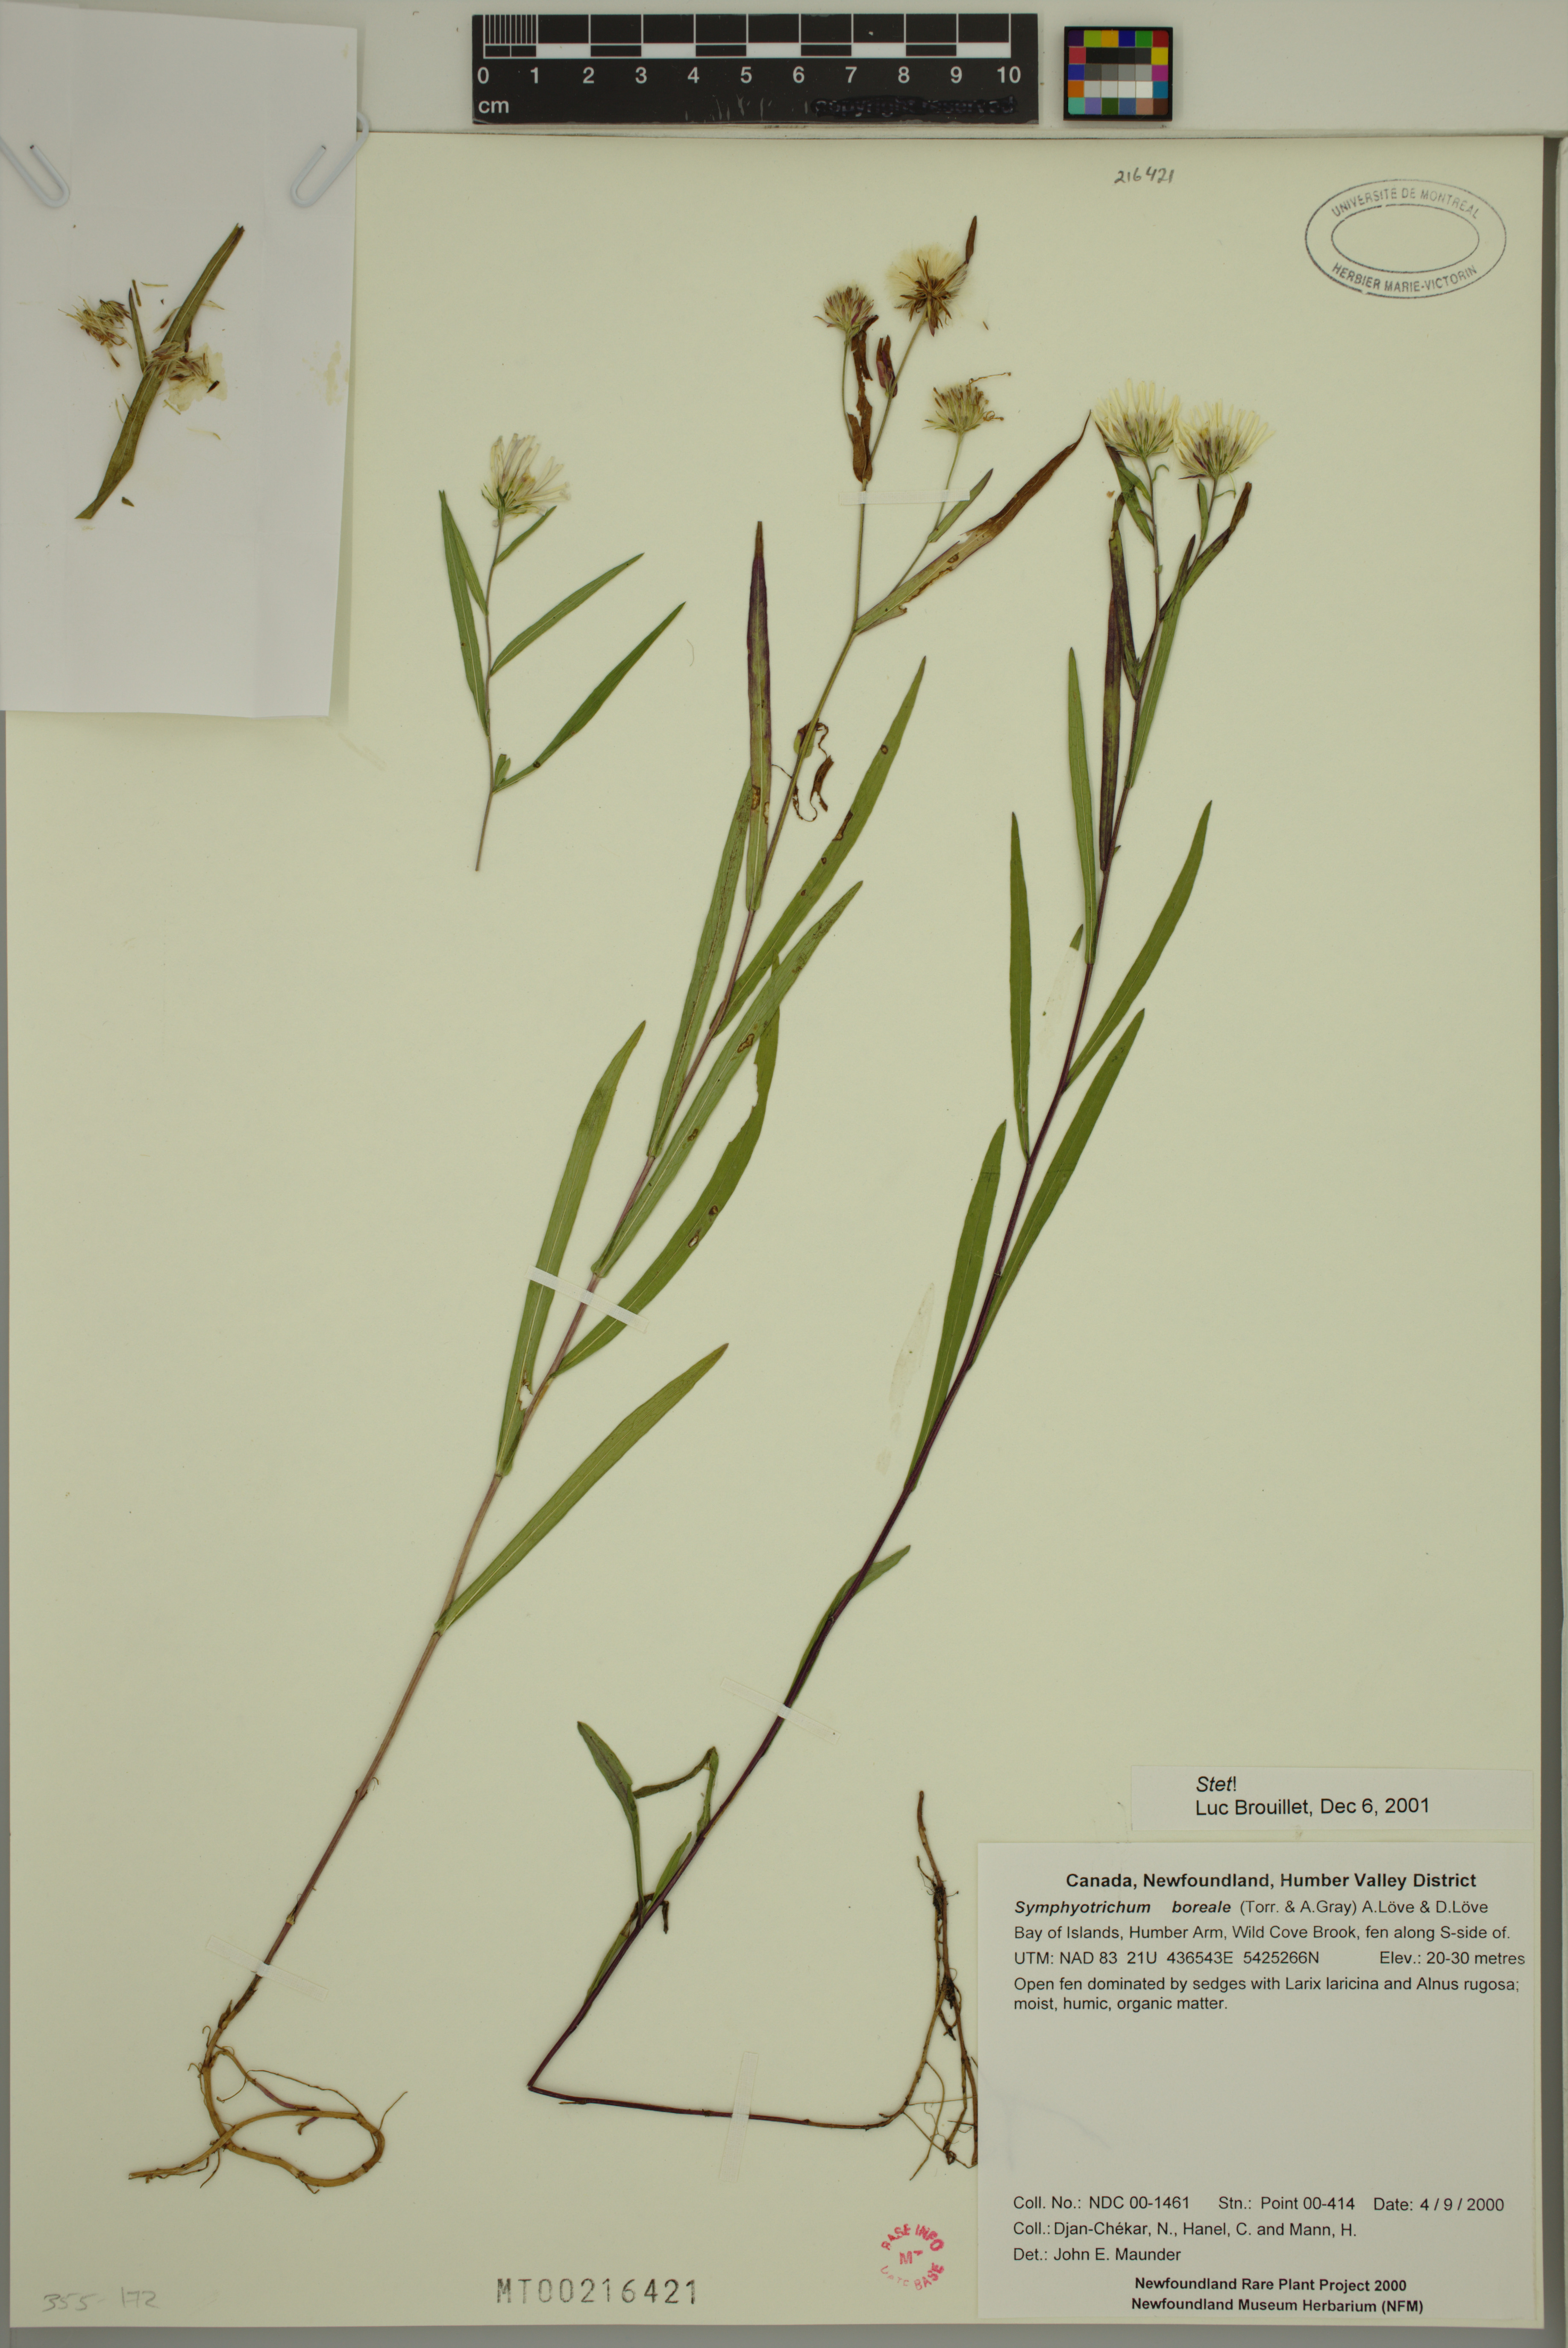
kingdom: Plantae
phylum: Tracheophyta
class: Magnoliopsida
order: Asterales
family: Asteraceae
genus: Symphyotrichum
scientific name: Symphyotrichum boreale
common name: Northern bog aster
